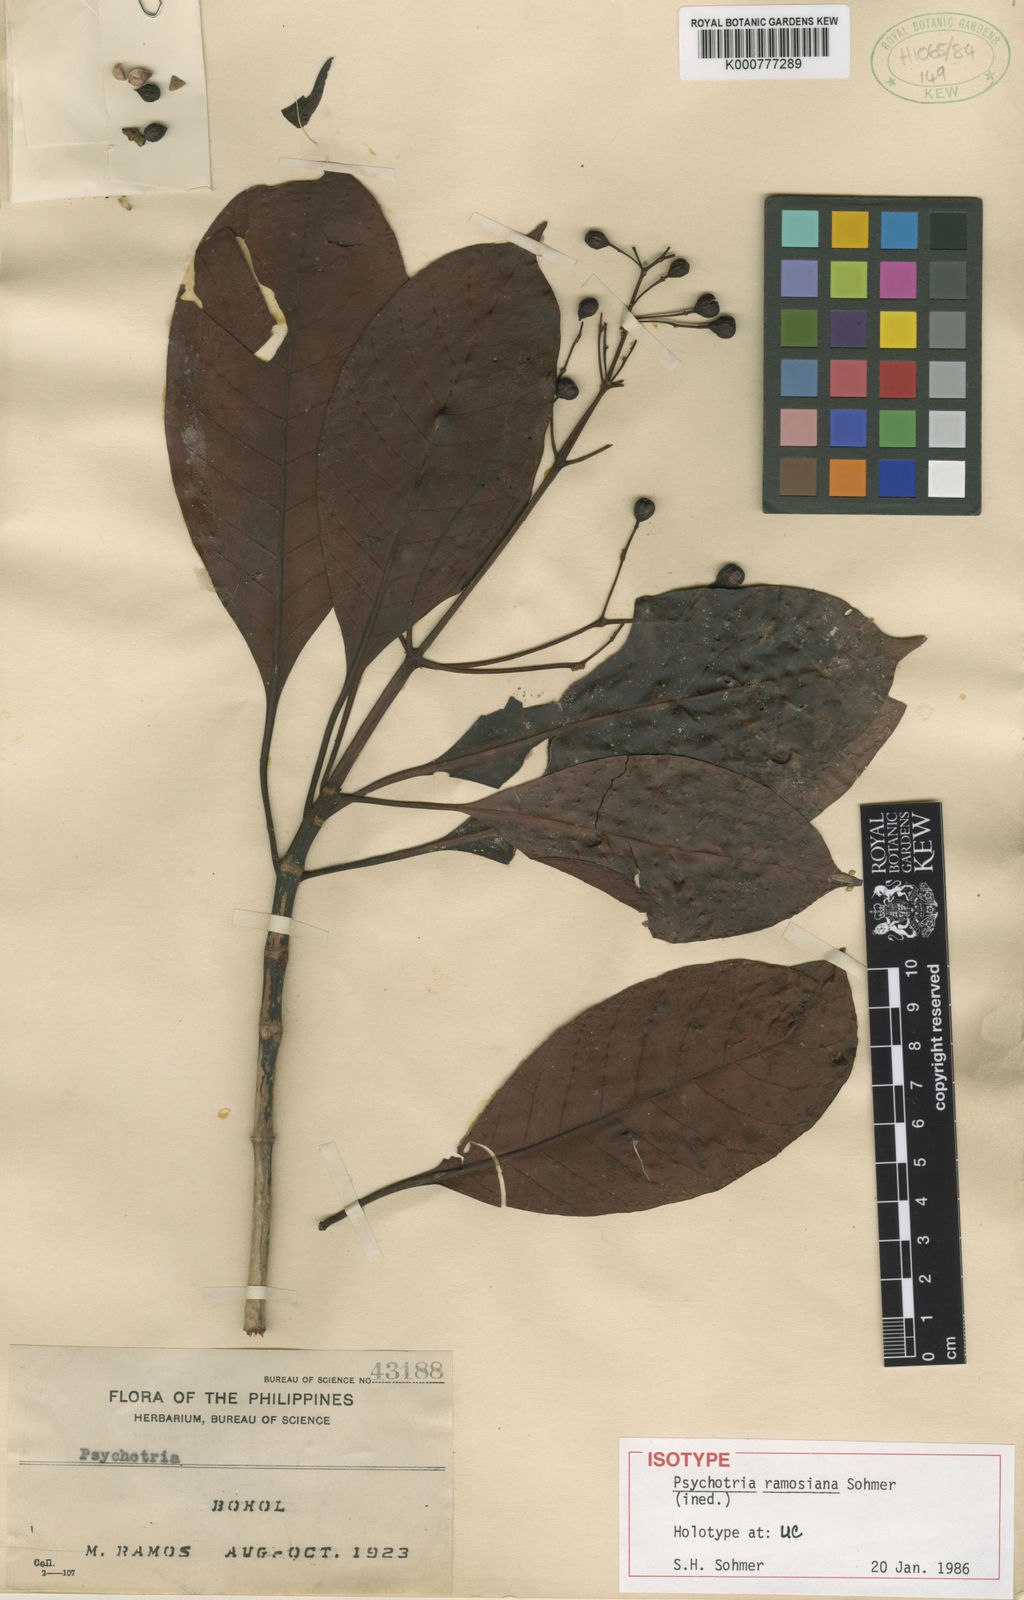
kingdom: Plantae
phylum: Tracheophyta
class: Magnoliopsida
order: Gentianales
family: Rubiaceae
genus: Psychotria
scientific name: Psychotria quisumbingiana
